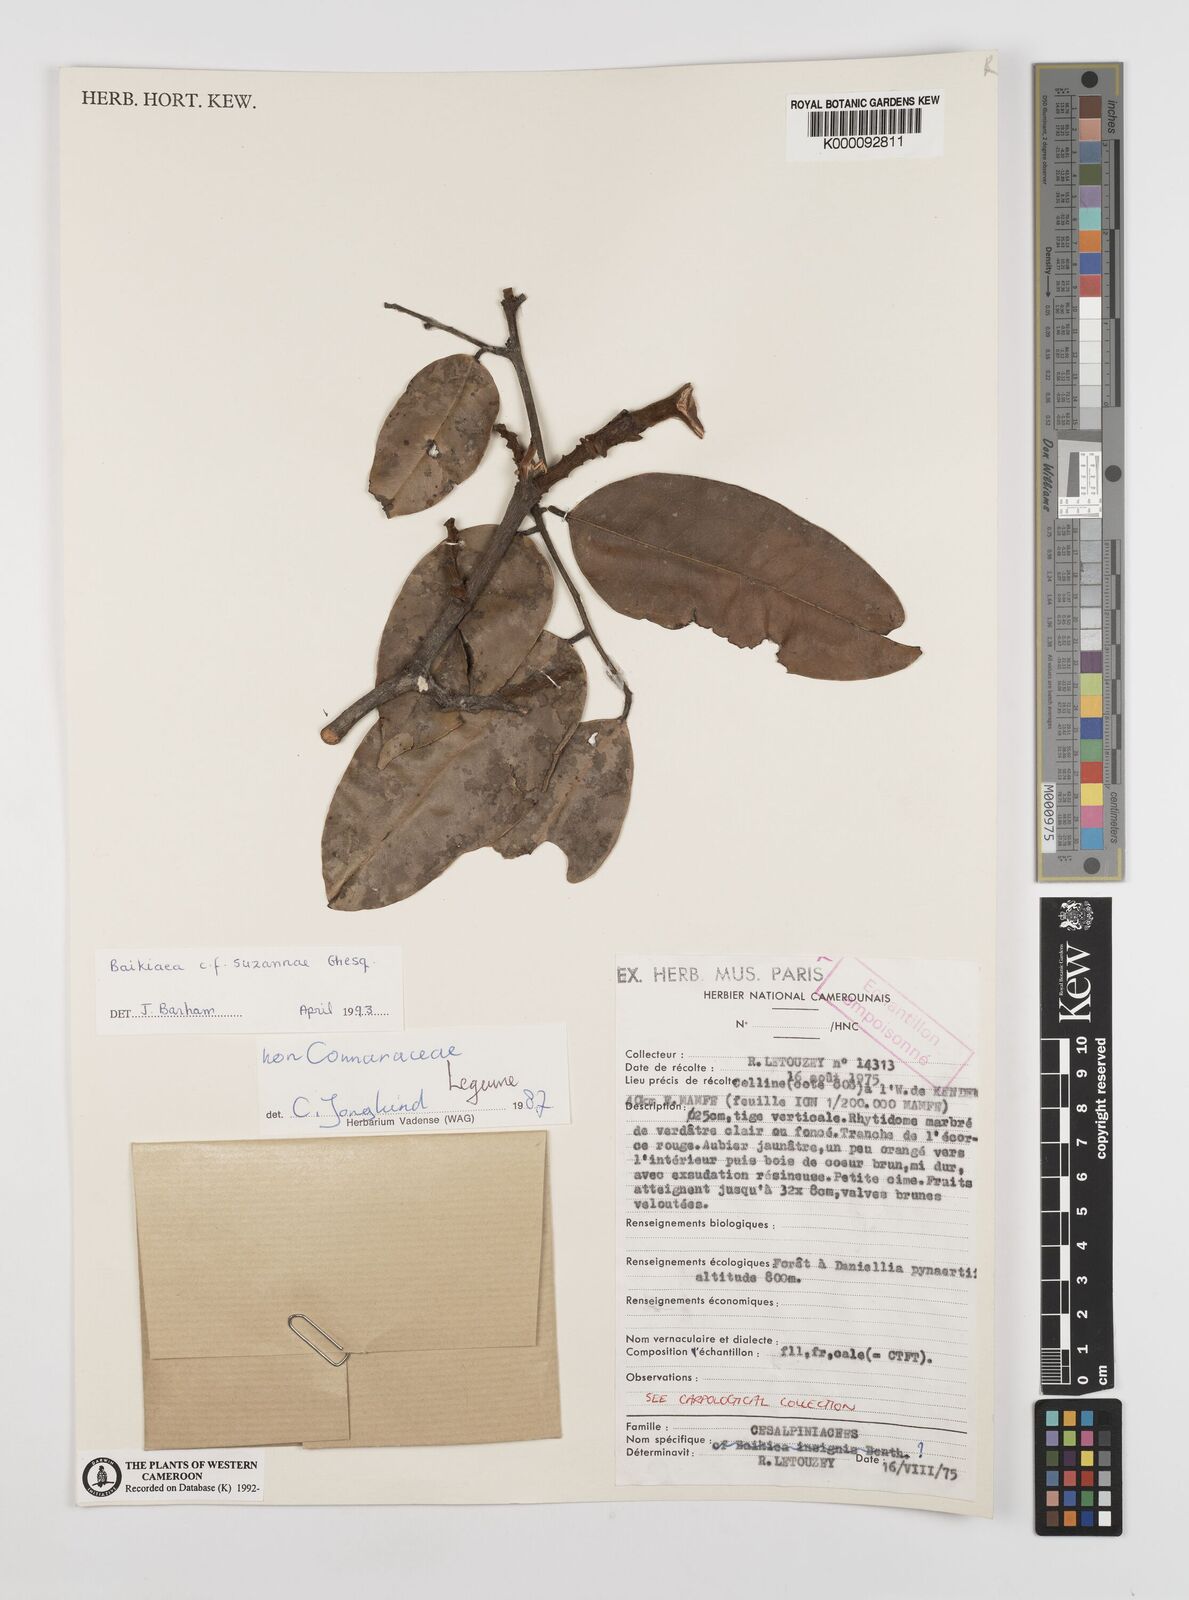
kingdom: Plantae
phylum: Tracheophyta
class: Magnoliopsida
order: Fabales
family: Fabaceae
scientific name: Fabaceae
